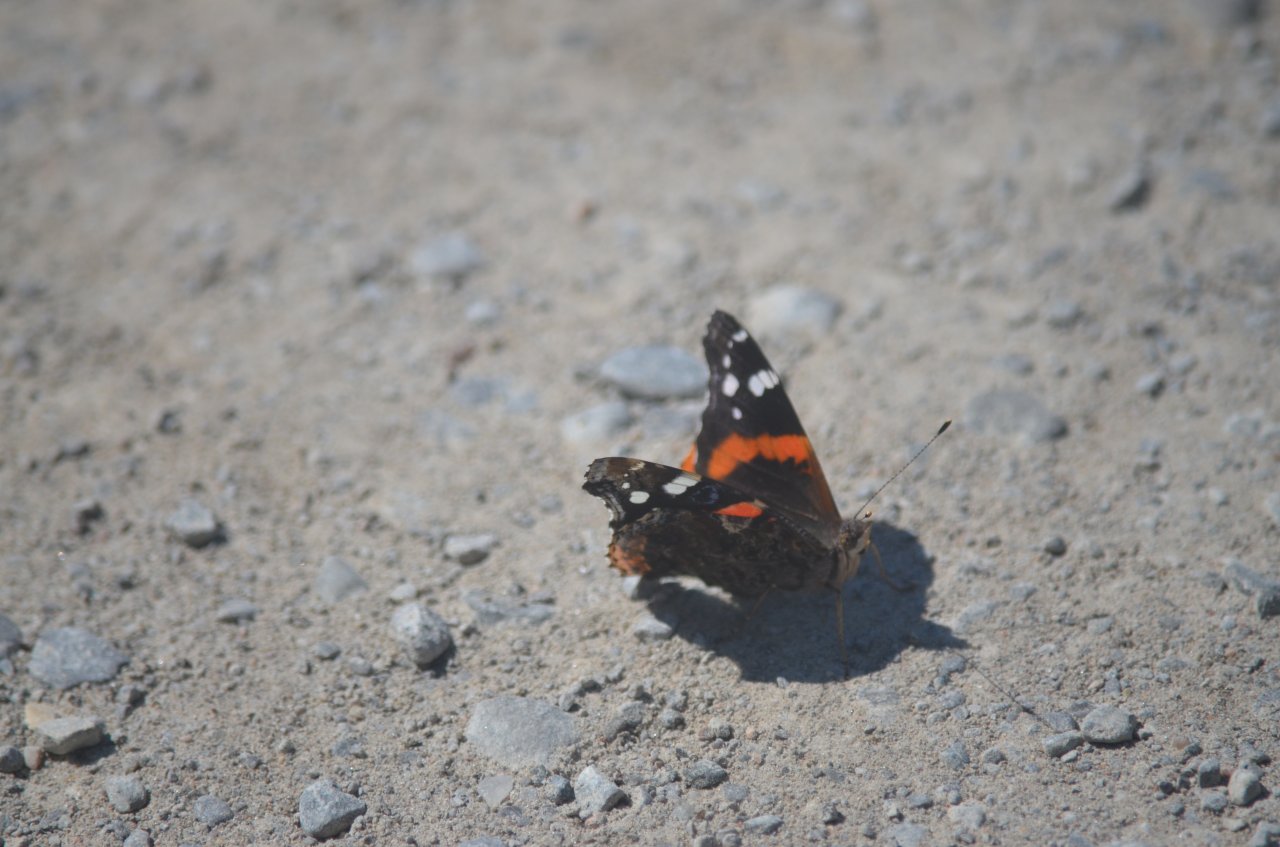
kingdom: Animalia
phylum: Arthropoda
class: Insecta
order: Lepidoptera
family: Nymphalidae
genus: Vanessa
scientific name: Vanessa atalanta
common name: Red Admiral
